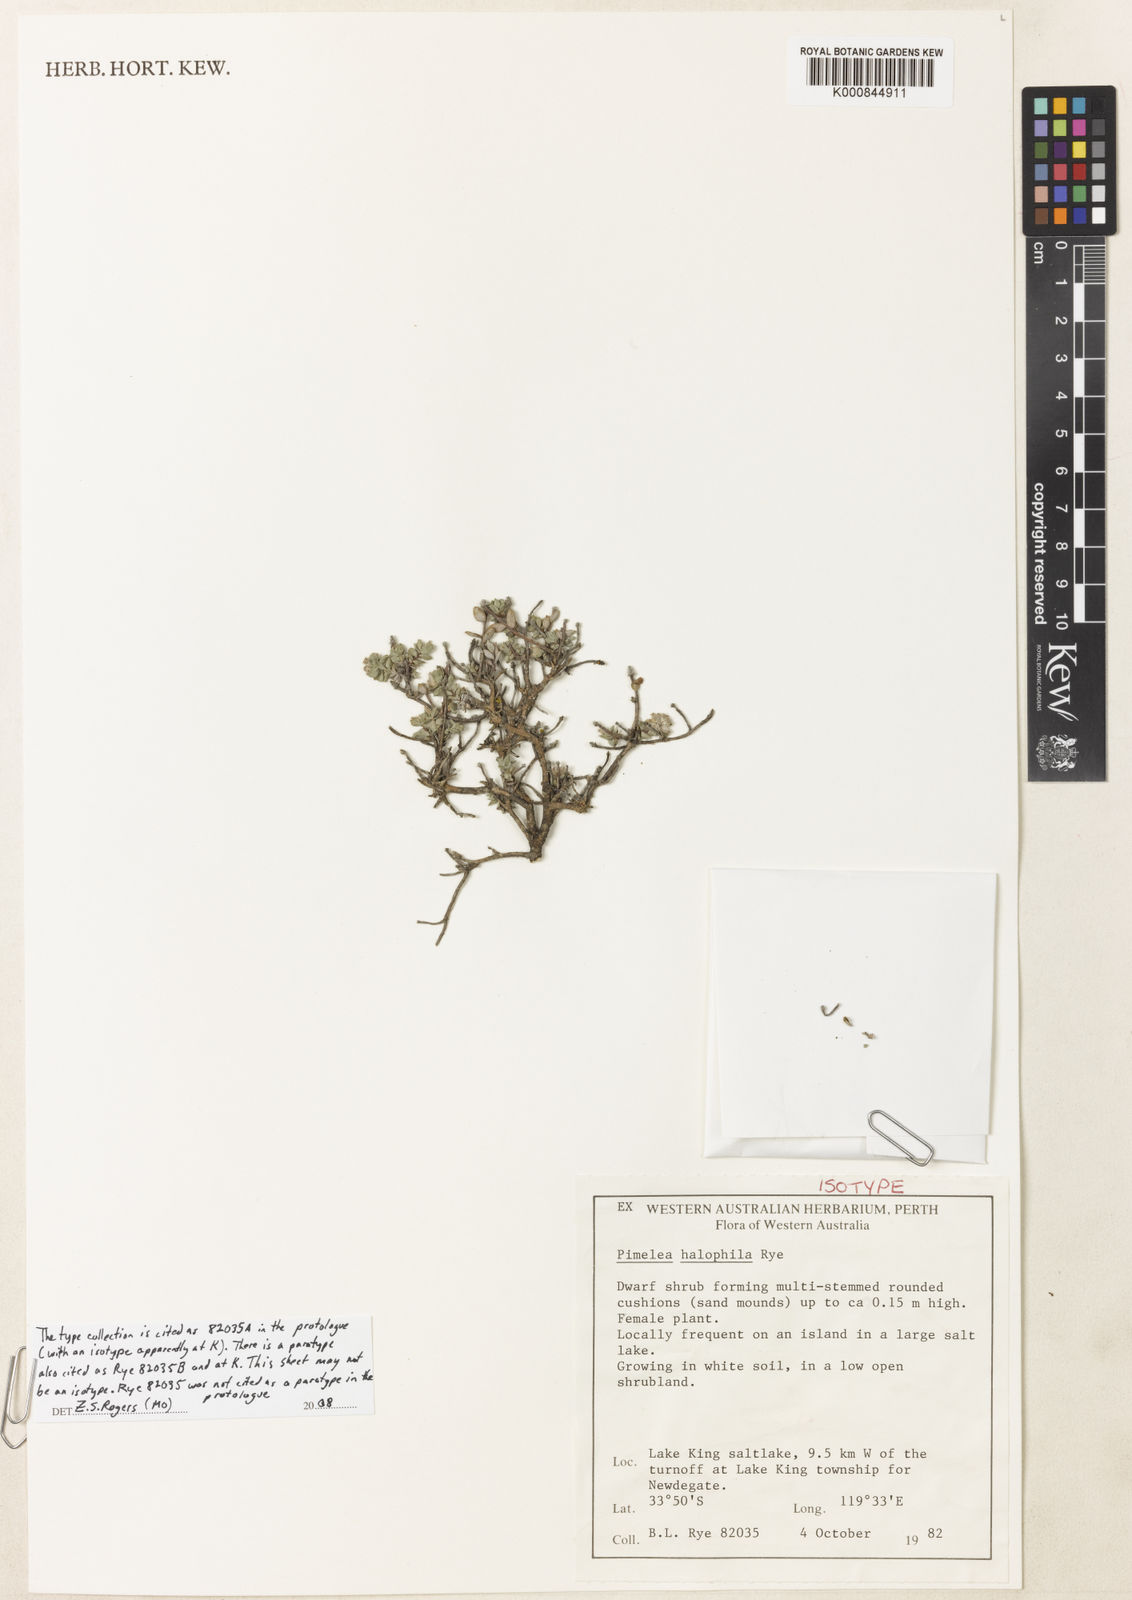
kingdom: Plantae
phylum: Tracheophyta
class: Magnoliopsida
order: Malvales
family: Thymelaeaceae
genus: Pimelea
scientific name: Pimelea halophila
